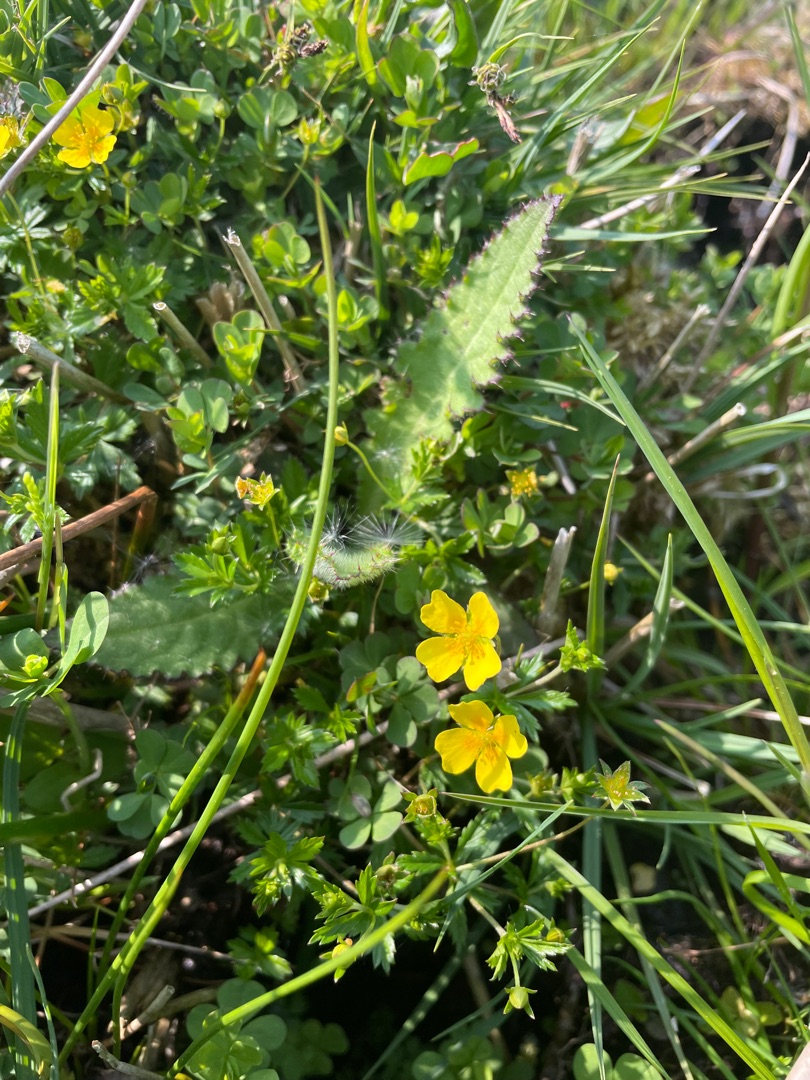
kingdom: Plantae
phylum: Tracheophyta
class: Magnoliopsida
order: Rosales
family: Rosaceae
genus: Potentilla
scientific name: Potentilla erecta
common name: Tormentil
